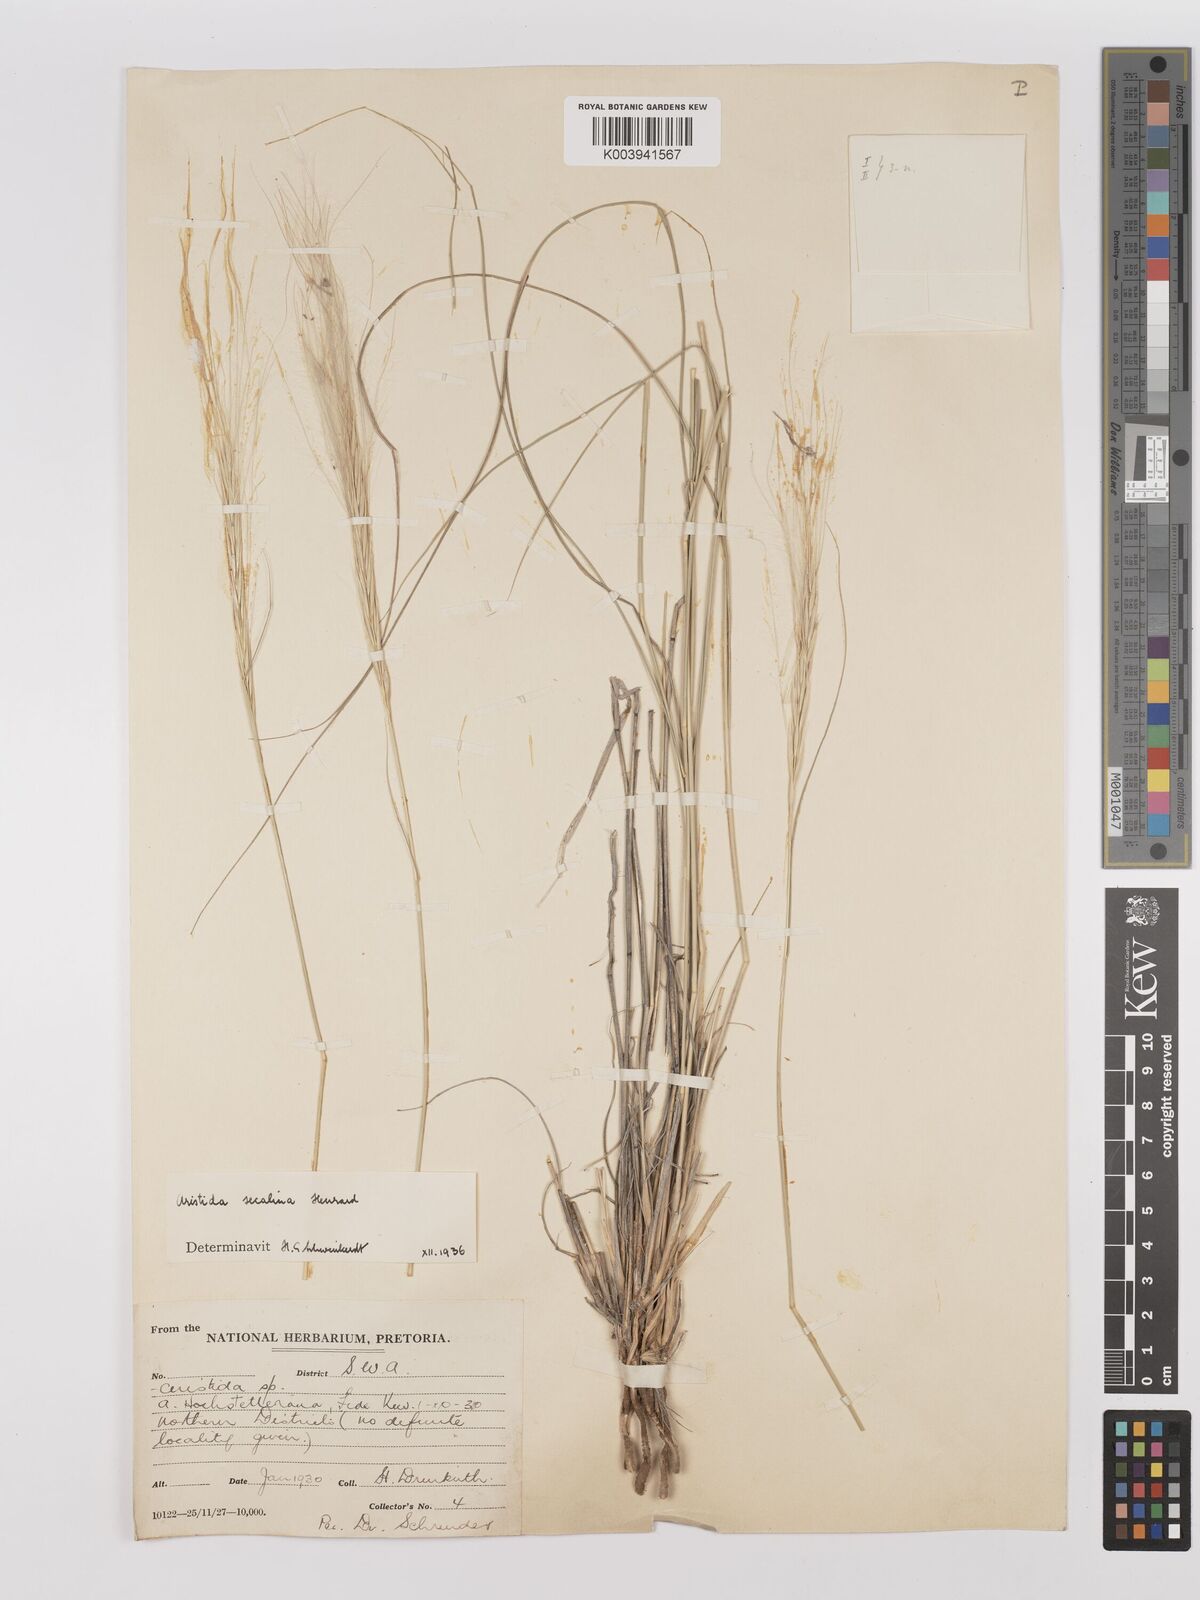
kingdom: Plantae
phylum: Tracheophyta
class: Liliopsida
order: Poales
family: Poaceae
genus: Stipagrostis
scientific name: Stipagrostis hochstetteriana
